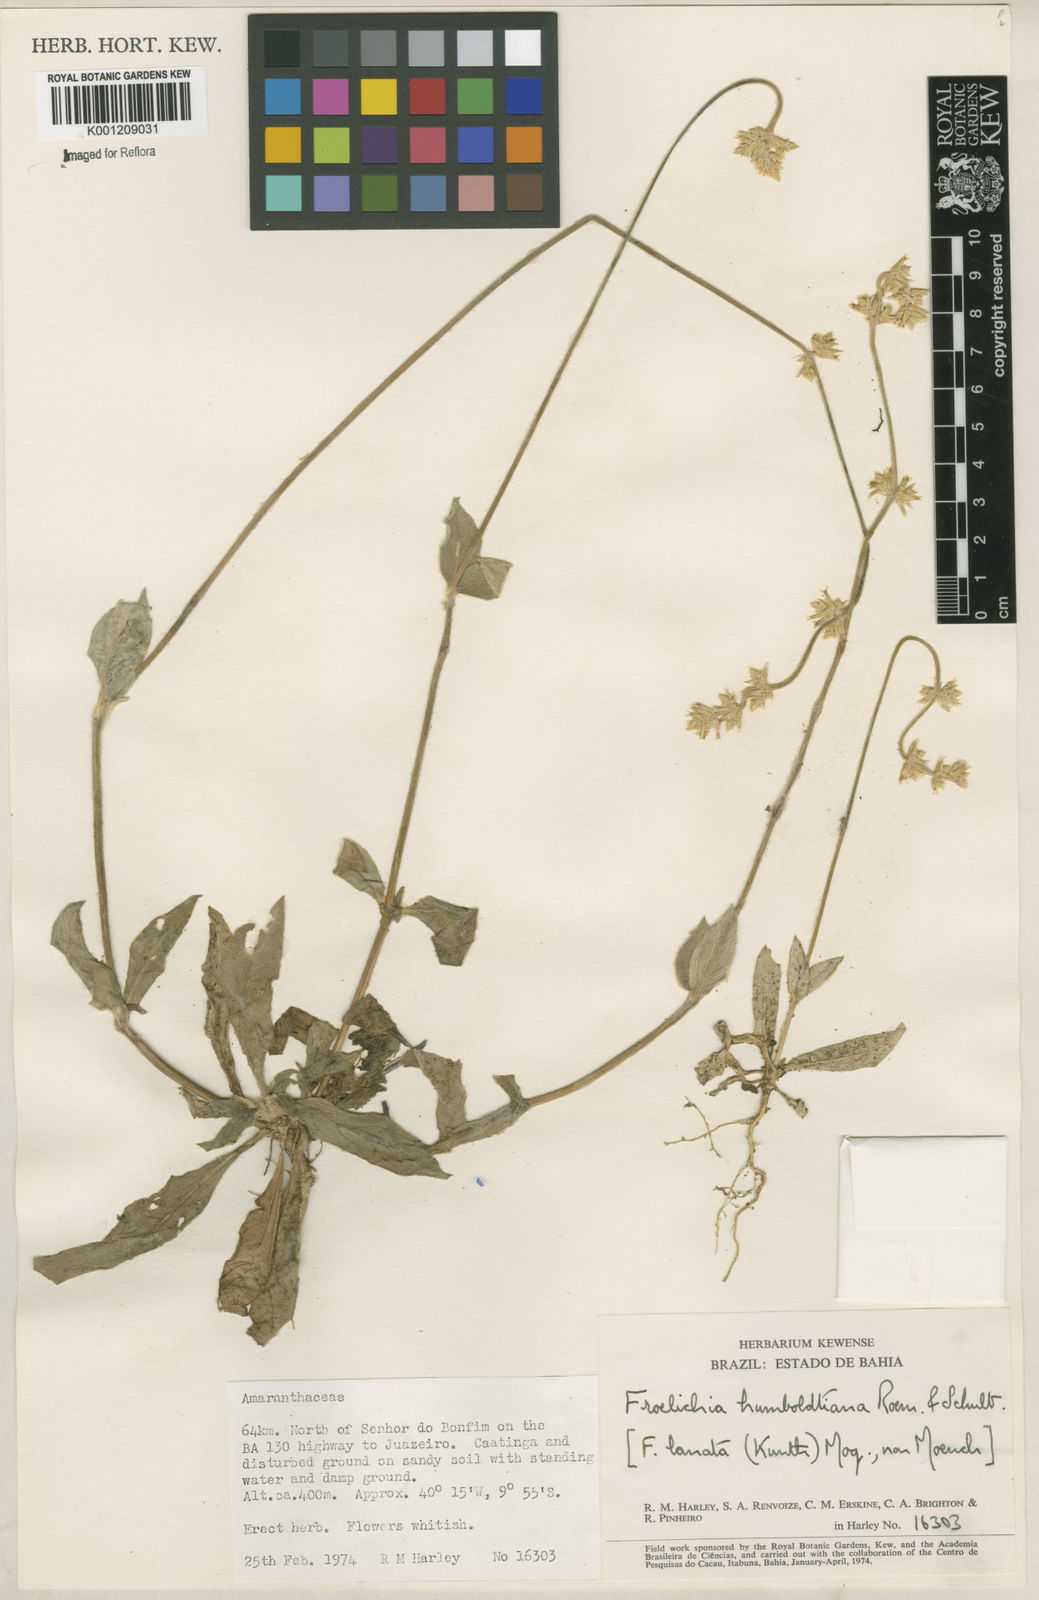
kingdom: Plantae
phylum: Tracheophyta
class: Magnoliopsida
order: Caryophyllales
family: Amaranthaceae
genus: Froelichia
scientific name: Froelichia humboldtiana
